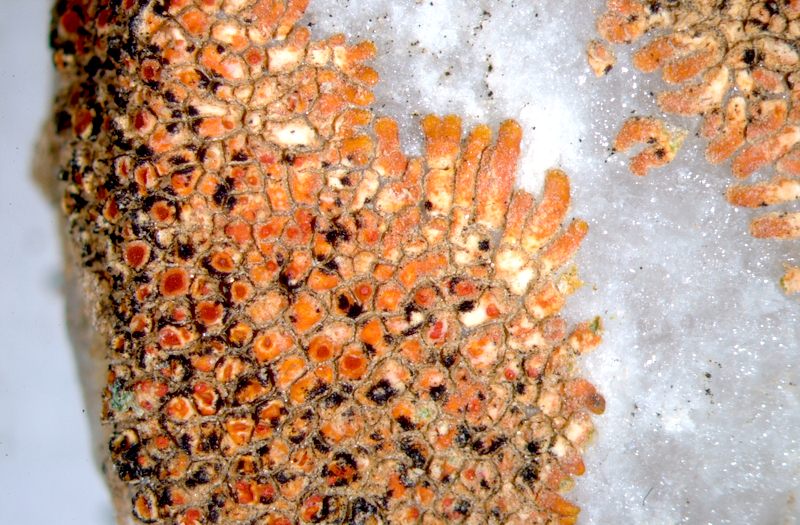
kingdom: Fungi
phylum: Ascomycota
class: Lecanoromycetes
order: Teloschistales
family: Teloschistaceae
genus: Caloplaca
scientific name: Caloplaca
